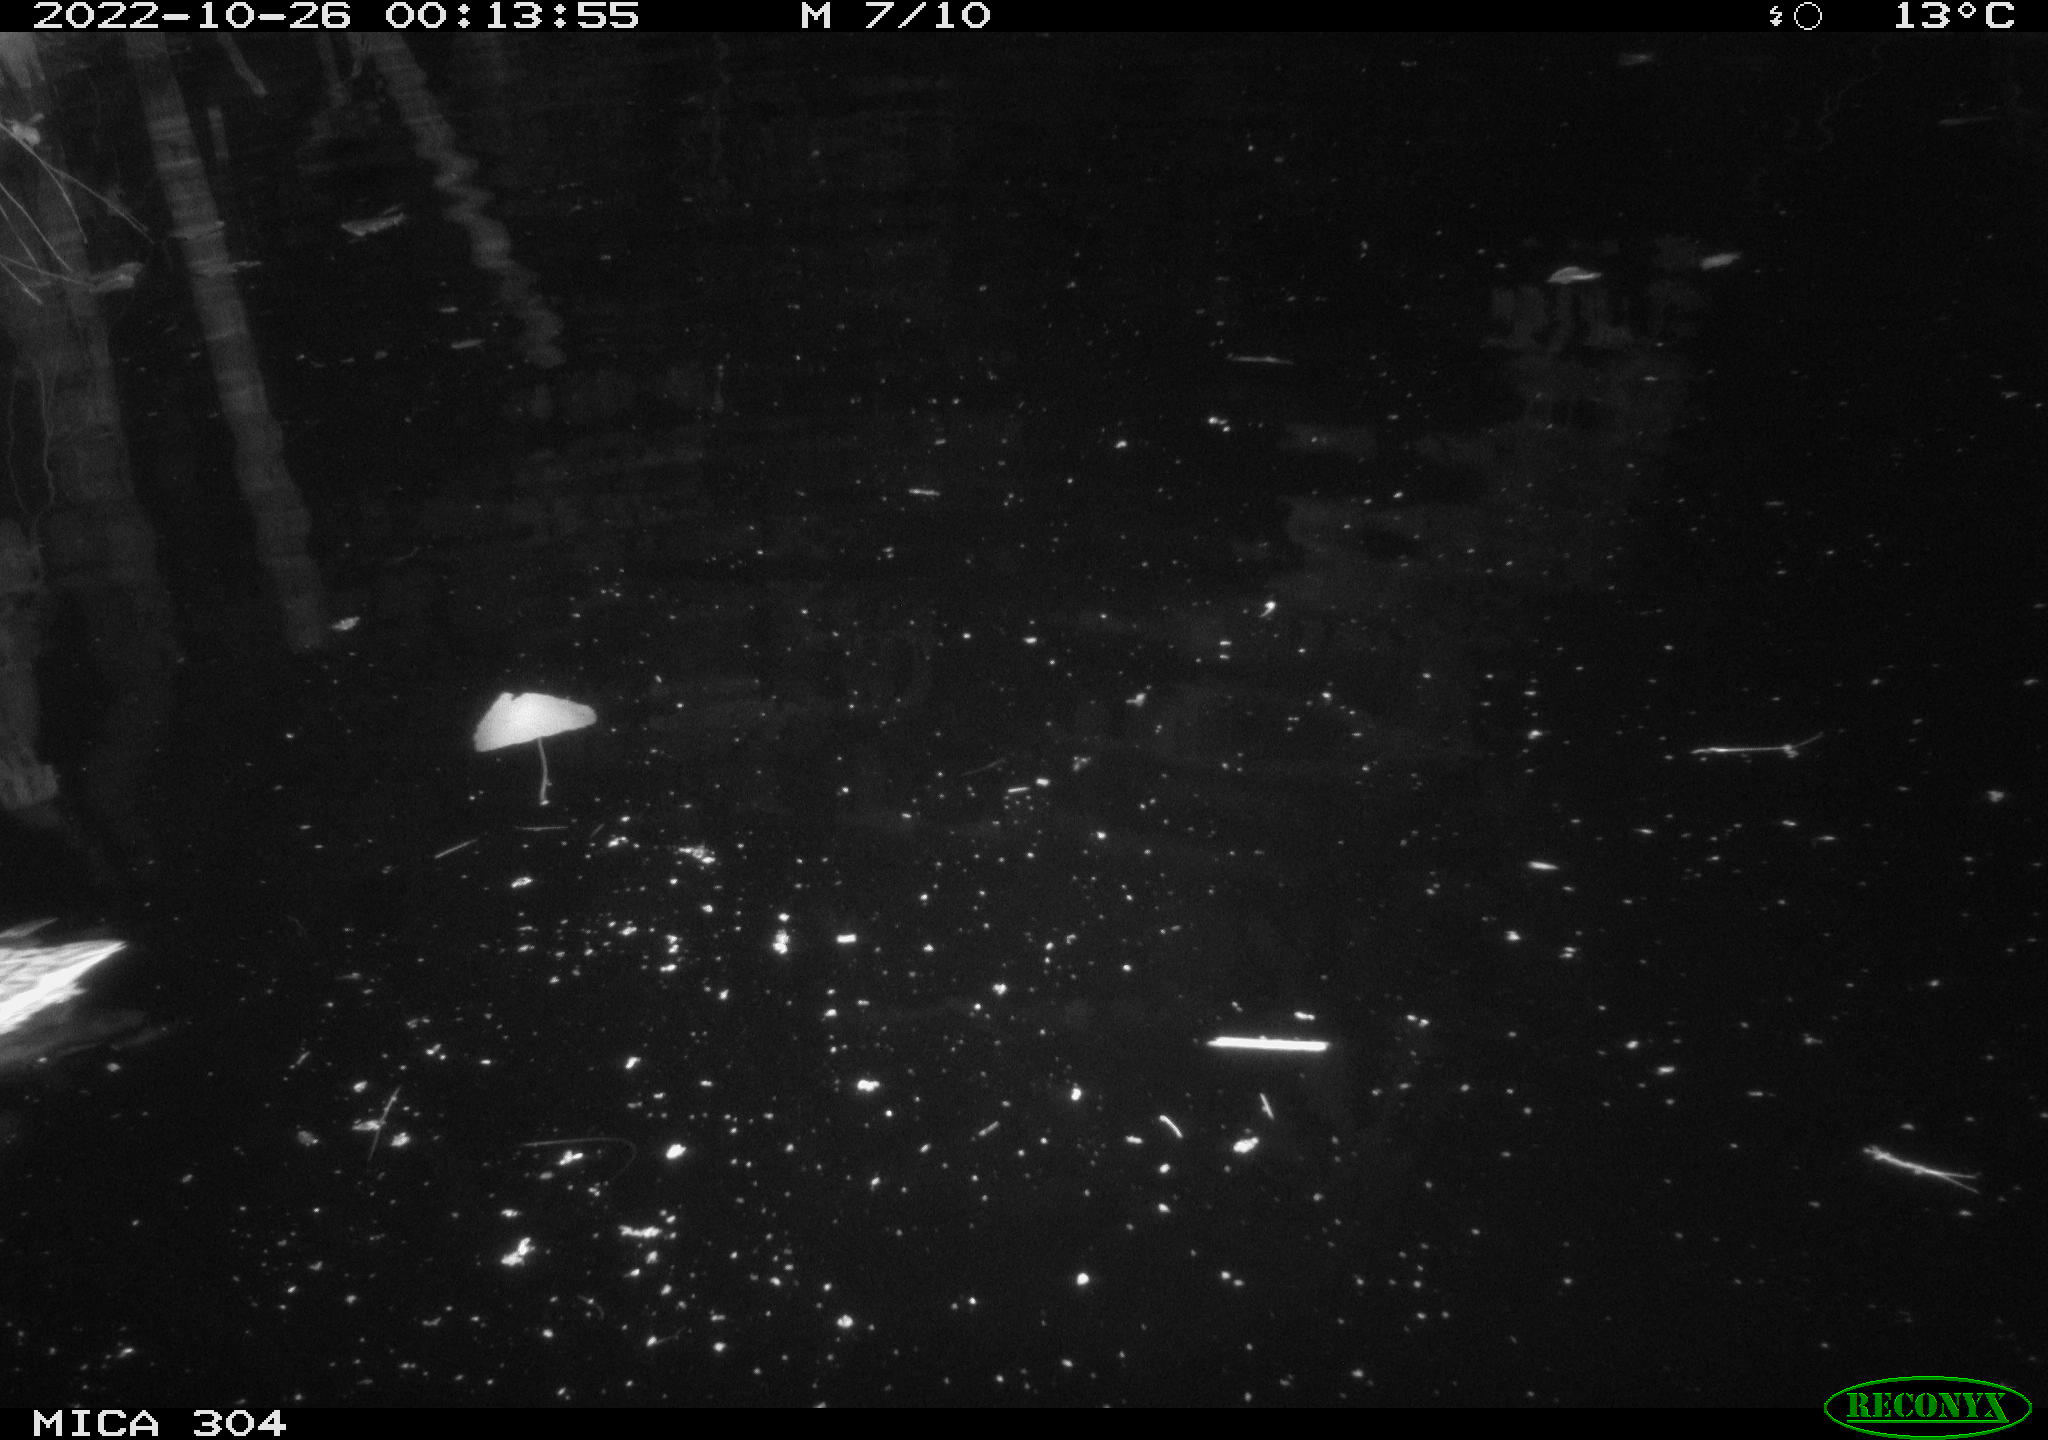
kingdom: Animalia
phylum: Chordata
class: Aves
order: Anseriformes
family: Anatidae
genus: Anas
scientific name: Anas
